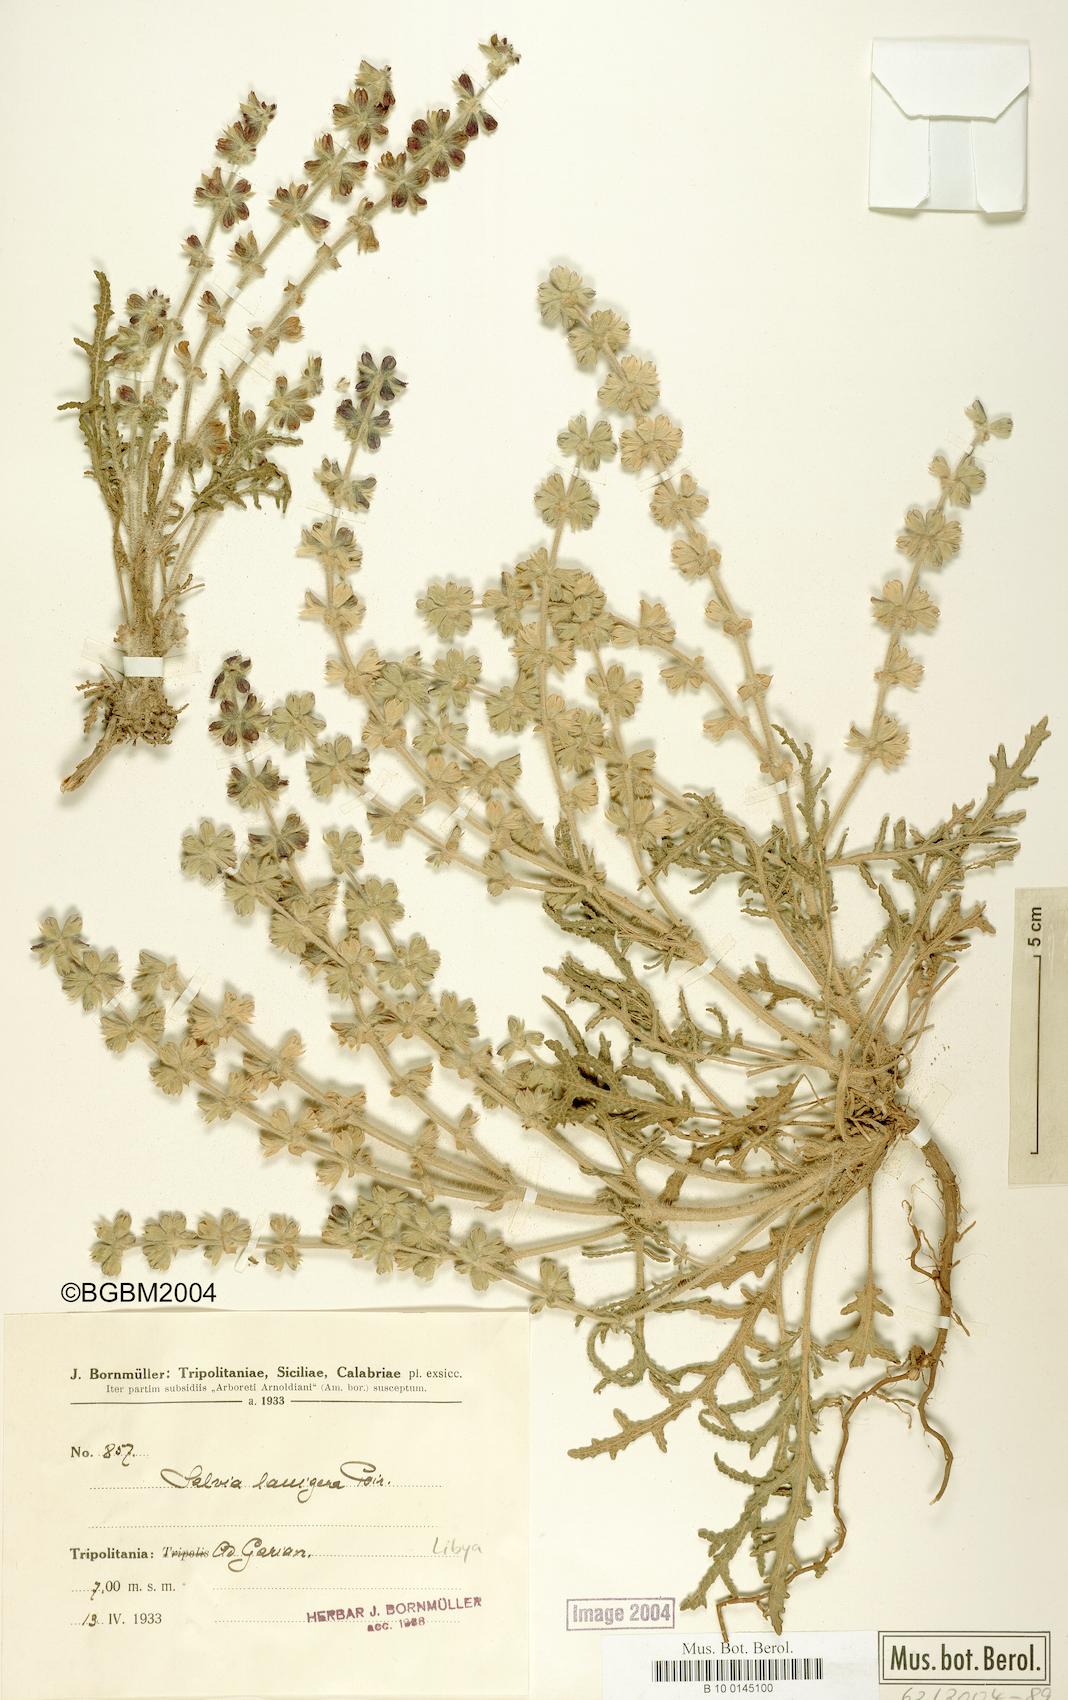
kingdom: Plantae
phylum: Tracheophyta
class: Magnoliopsida
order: Lamiales
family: Lamiaceae
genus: Salvia
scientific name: Salvia lanigera
